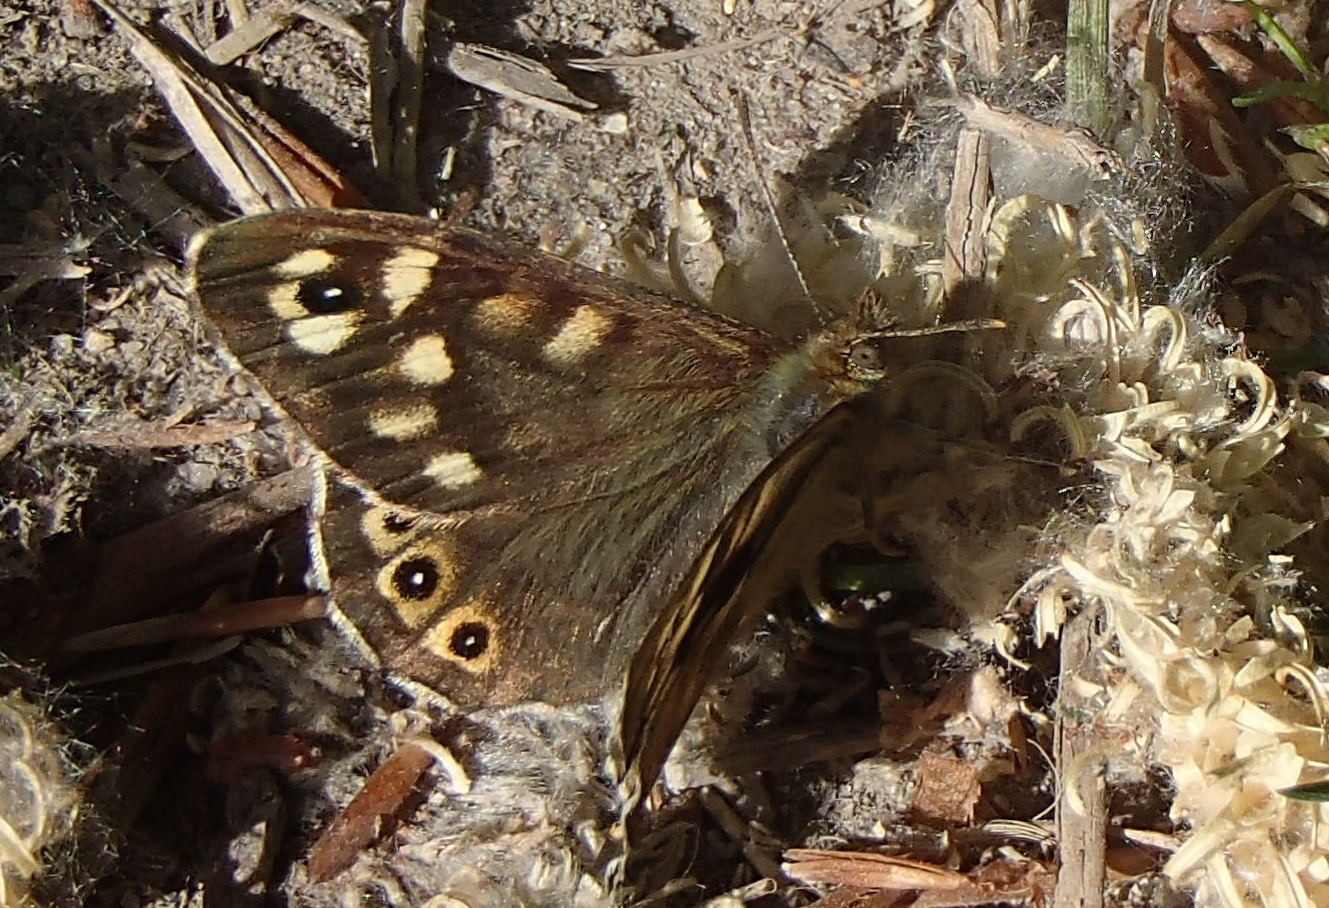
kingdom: Animalia
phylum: Arthropoda
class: Insecta
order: Lepidoptera
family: Nymphalidae
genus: Pararge
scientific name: Pararge aegeria
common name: Skovrandøje
